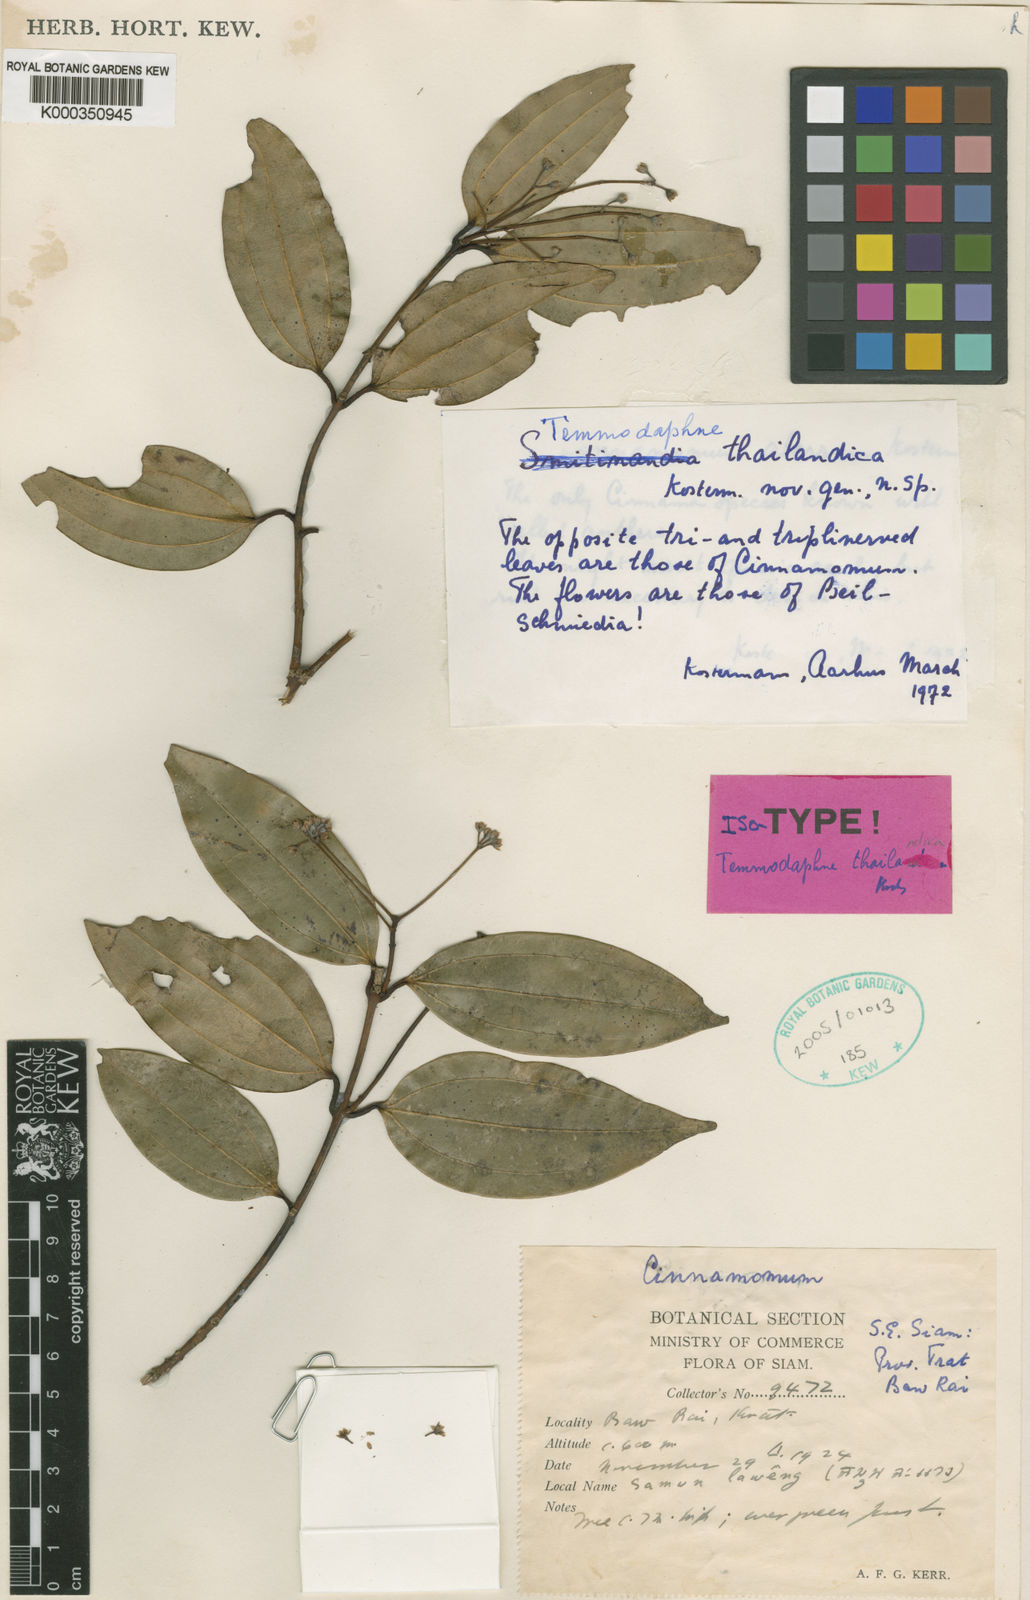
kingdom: Plantae
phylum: Tracheophyta
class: Magnoliopsida
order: Laurales
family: Lauraceae
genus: Cinnamomum
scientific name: Cinnamomum
